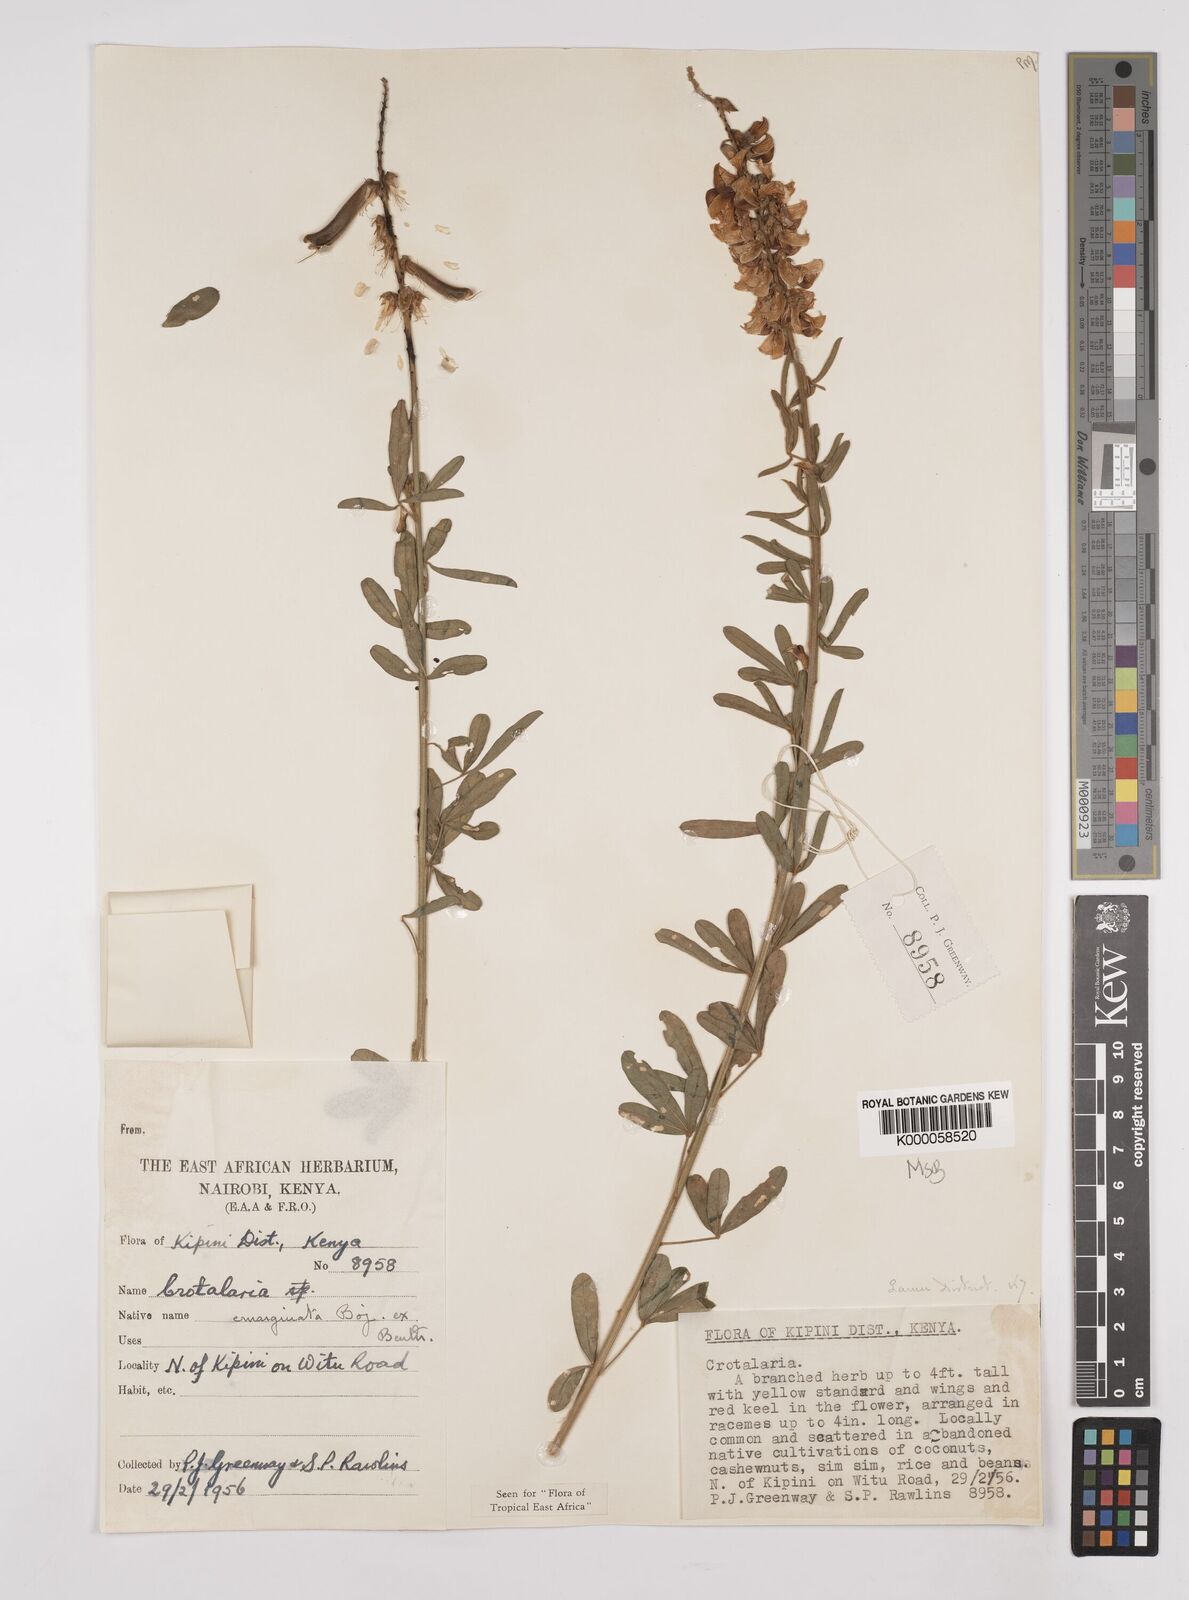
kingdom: Plantae
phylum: Tracheophyta
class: Magnoliopsida
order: Fabales
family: Fabaceae
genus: Crotalaria
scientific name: Crotalaria emarginata
